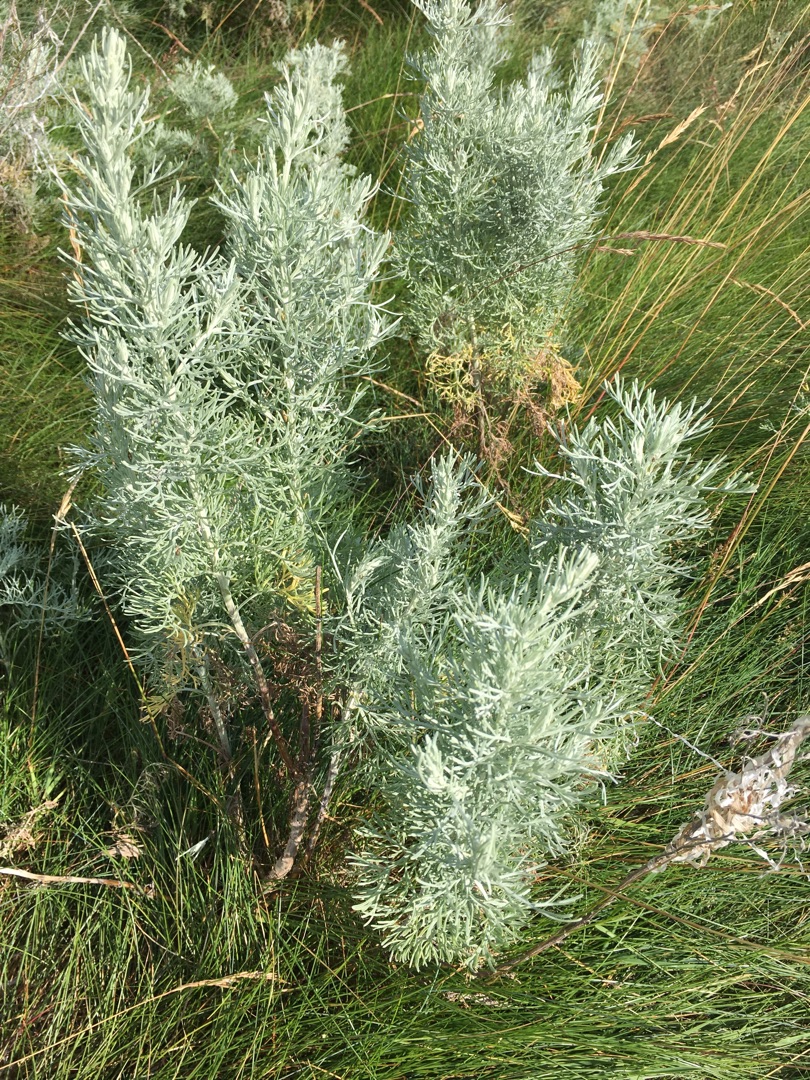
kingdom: Plantae
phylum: Tracheophyta
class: Magnoliopsida
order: Asterales
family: Asteraceae
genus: Artemisia
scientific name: Artemisia maritima
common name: Strandmalurt
